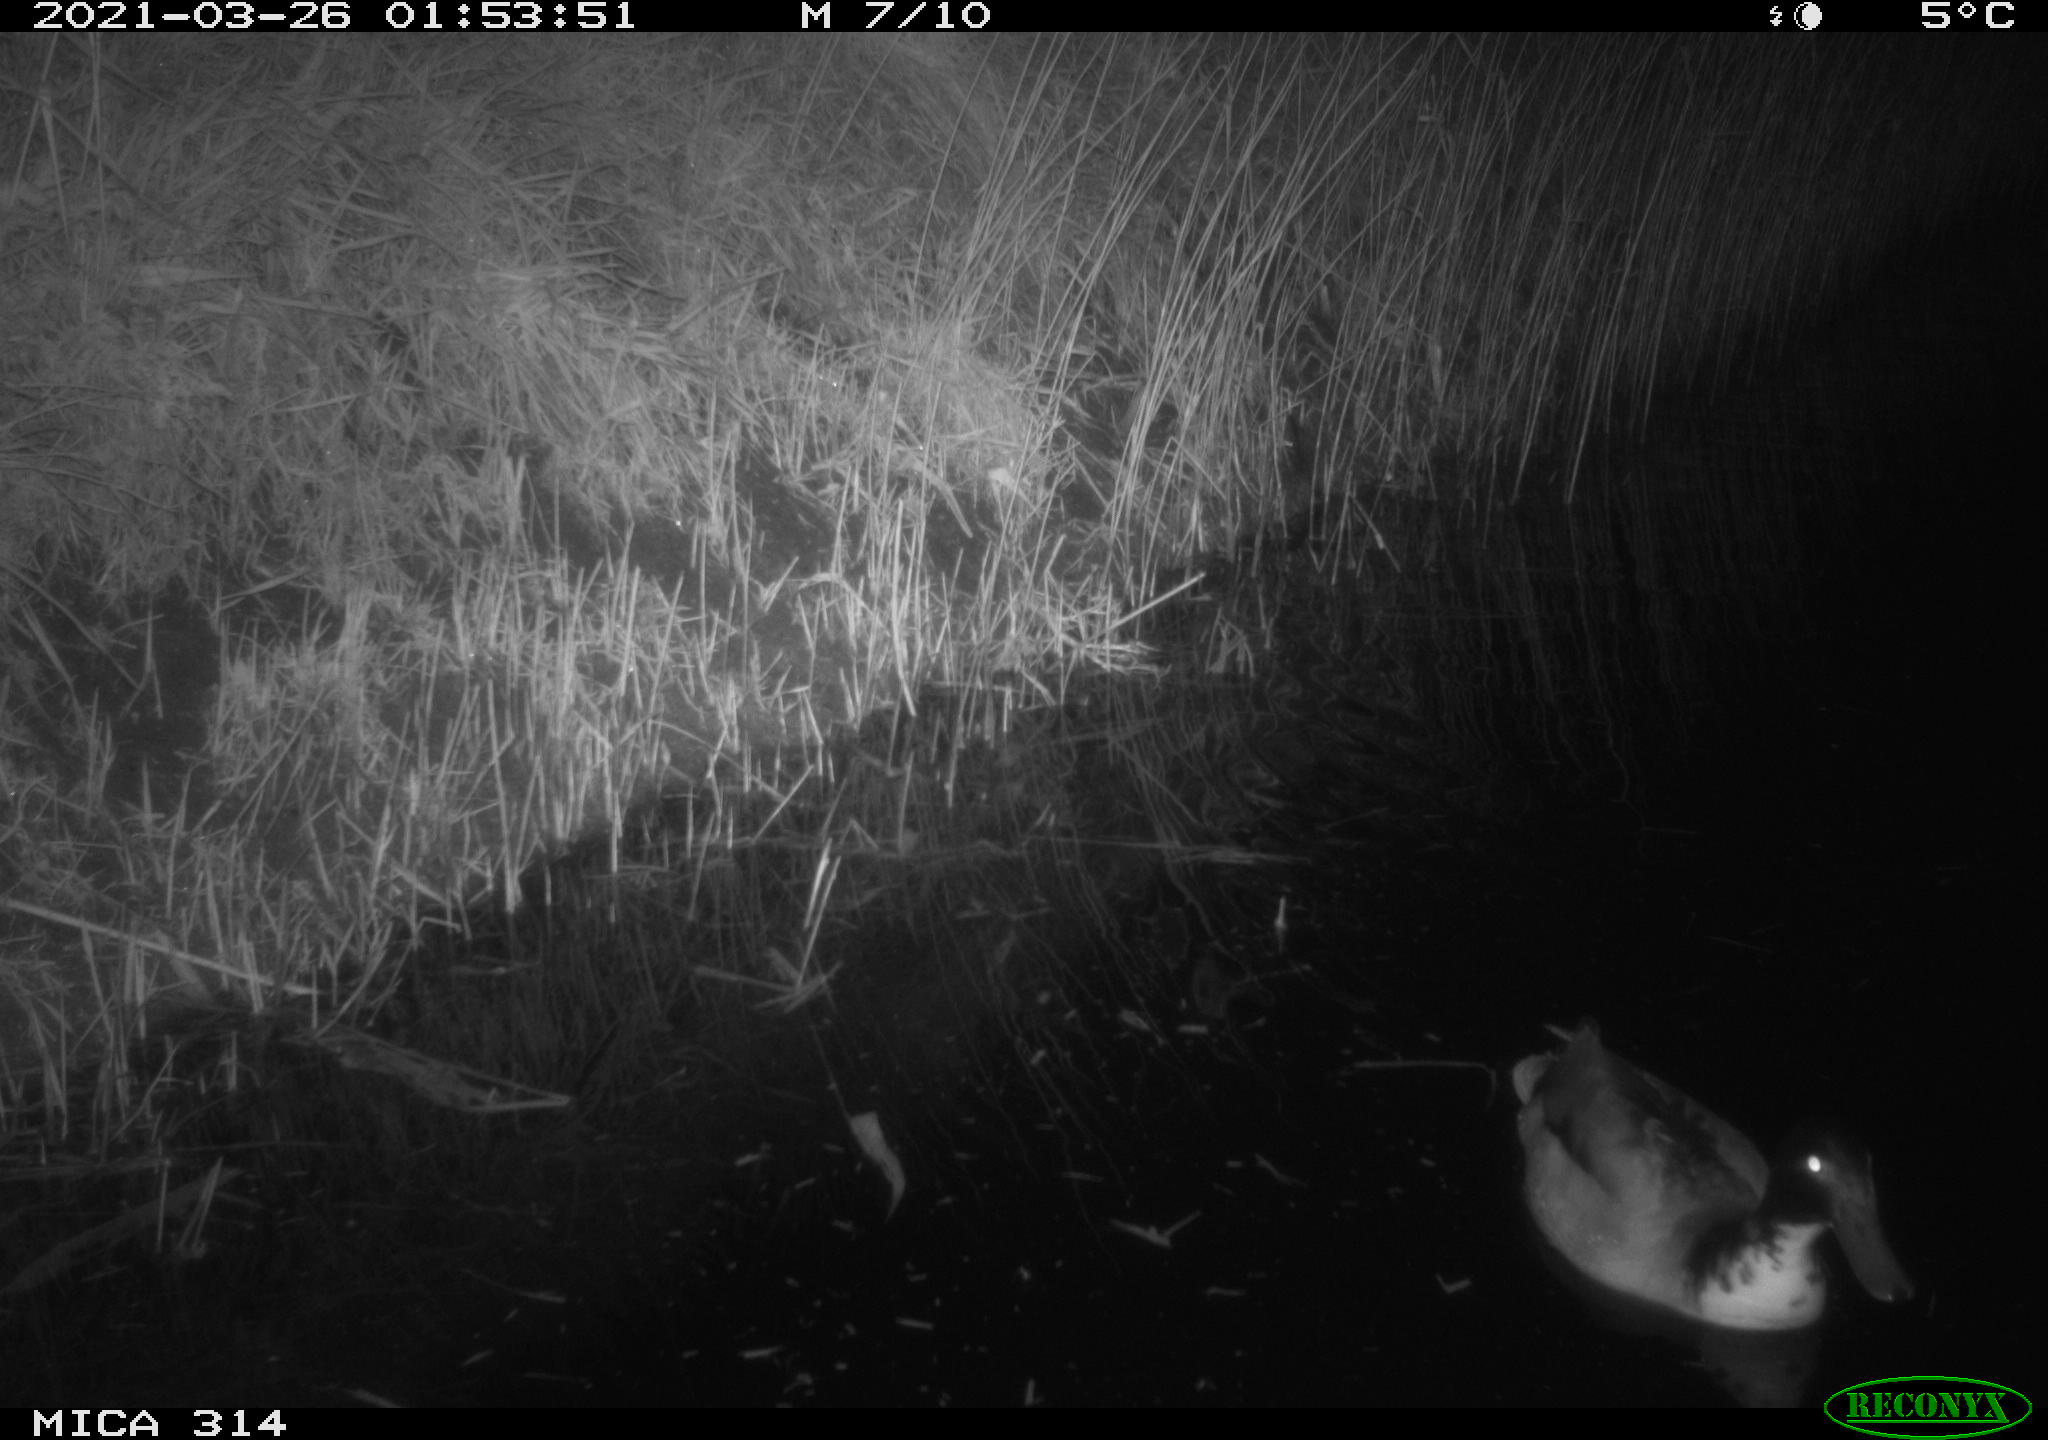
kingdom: Animalia
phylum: Chordata
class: Aves
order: Anseriformes
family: Anatidae
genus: Anas
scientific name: Anas platyrhynchos
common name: Mallard
